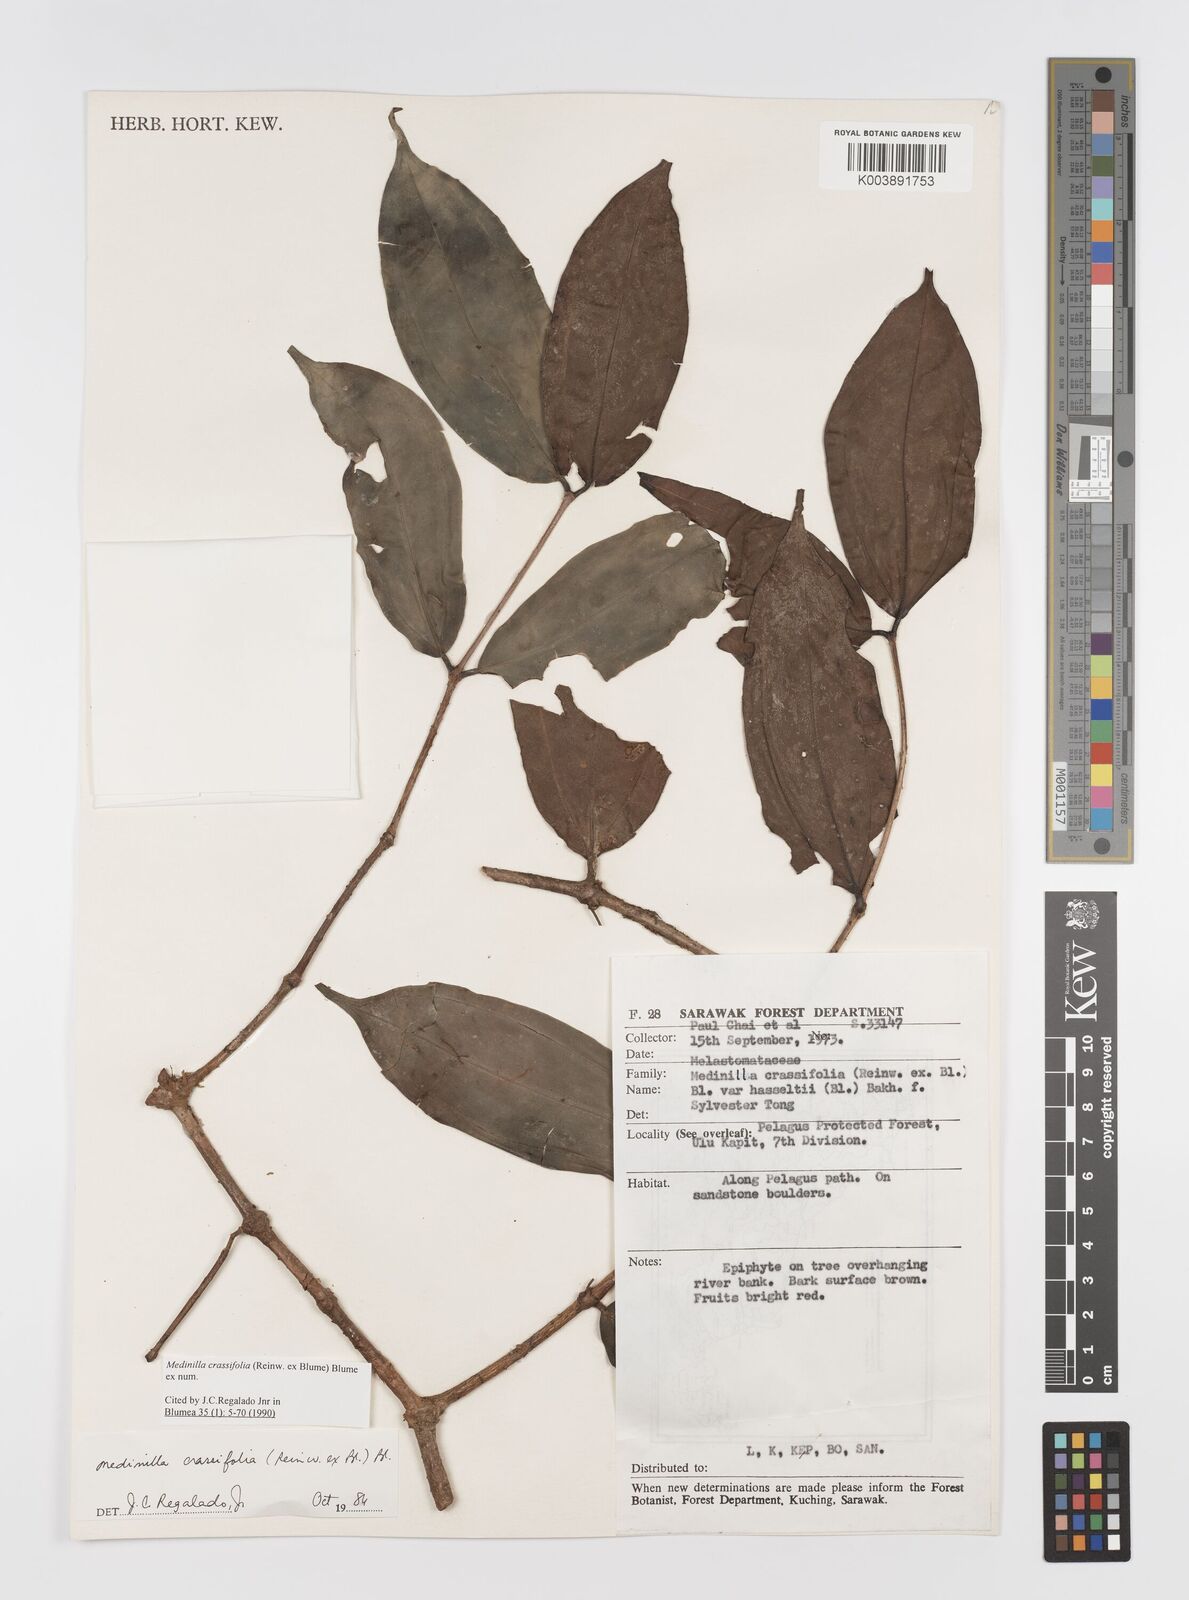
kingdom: Plantae
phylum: Tracheophyta
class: Magnoliopsida
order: Myrtales
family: Melastomataceae
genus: Medinilla
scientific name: Medinilla crassifolia
